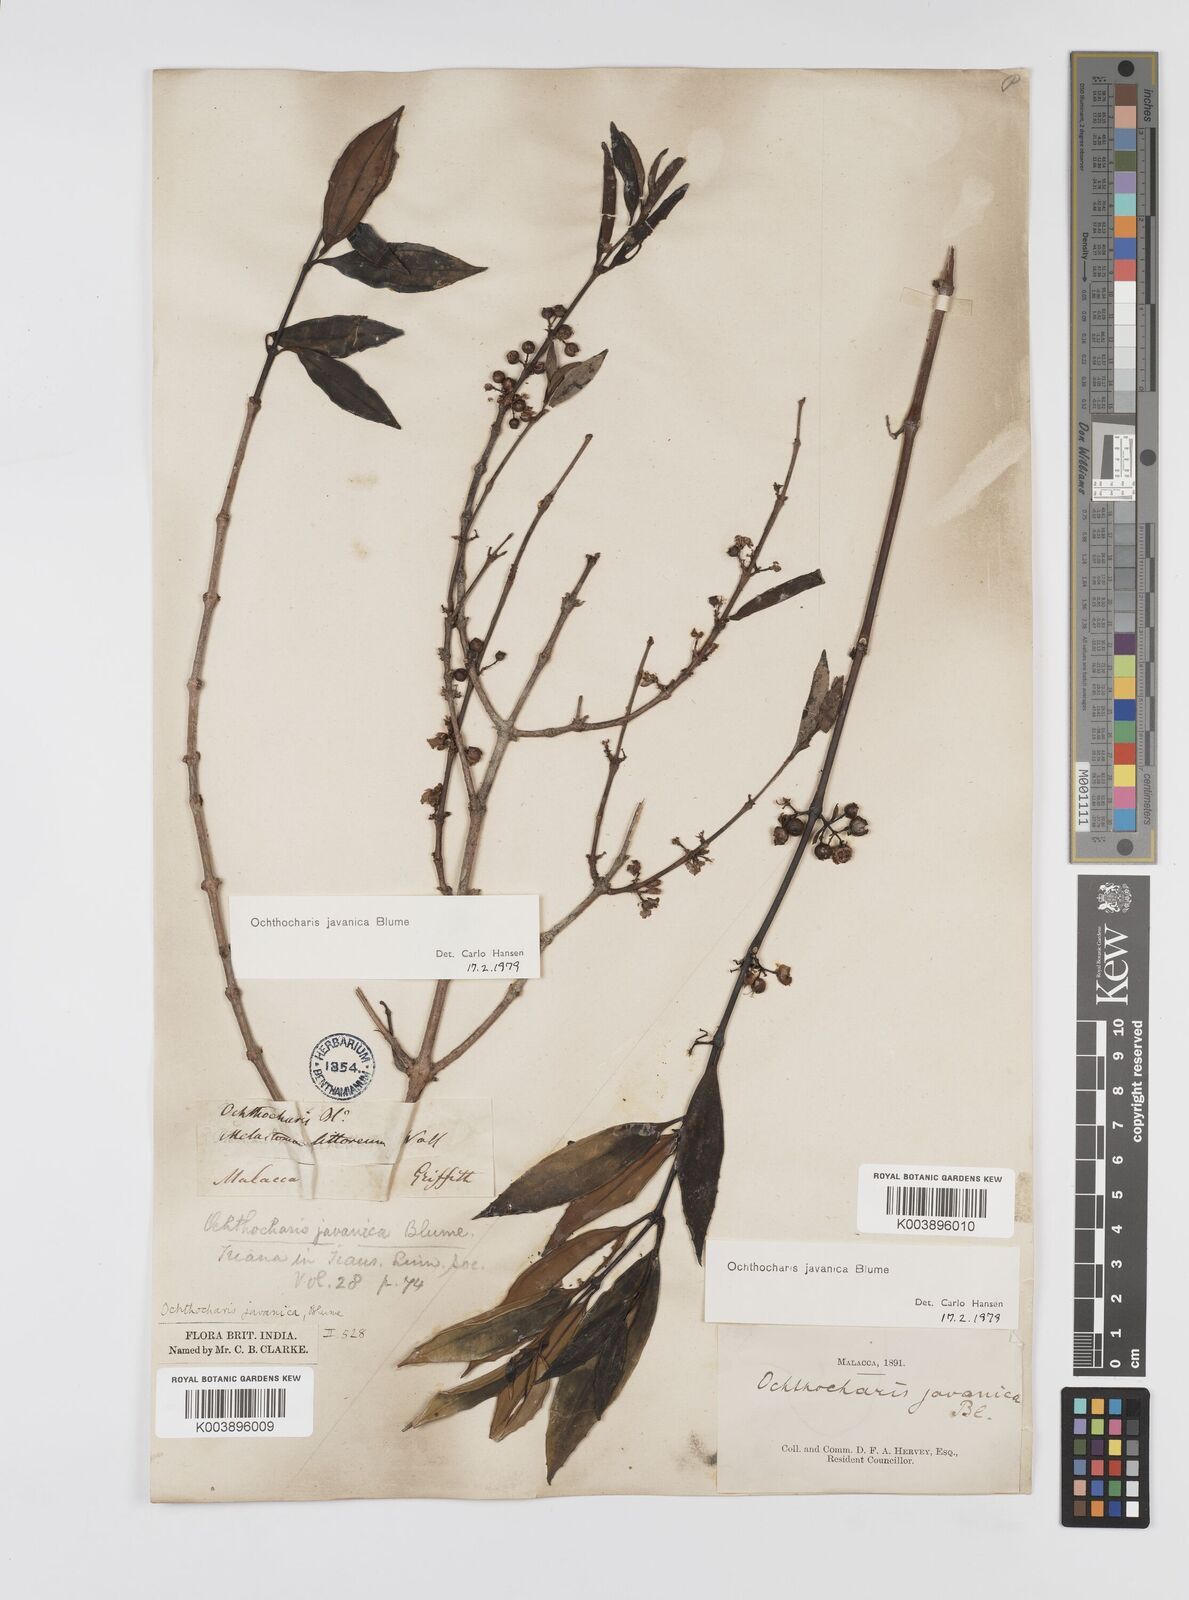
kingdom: Plantae
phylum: Tracheophyta
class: Magnoliopsida
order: Myrtales
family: Melastomataceae
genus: Ochthocharis
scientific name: Ochthocharis javanica
